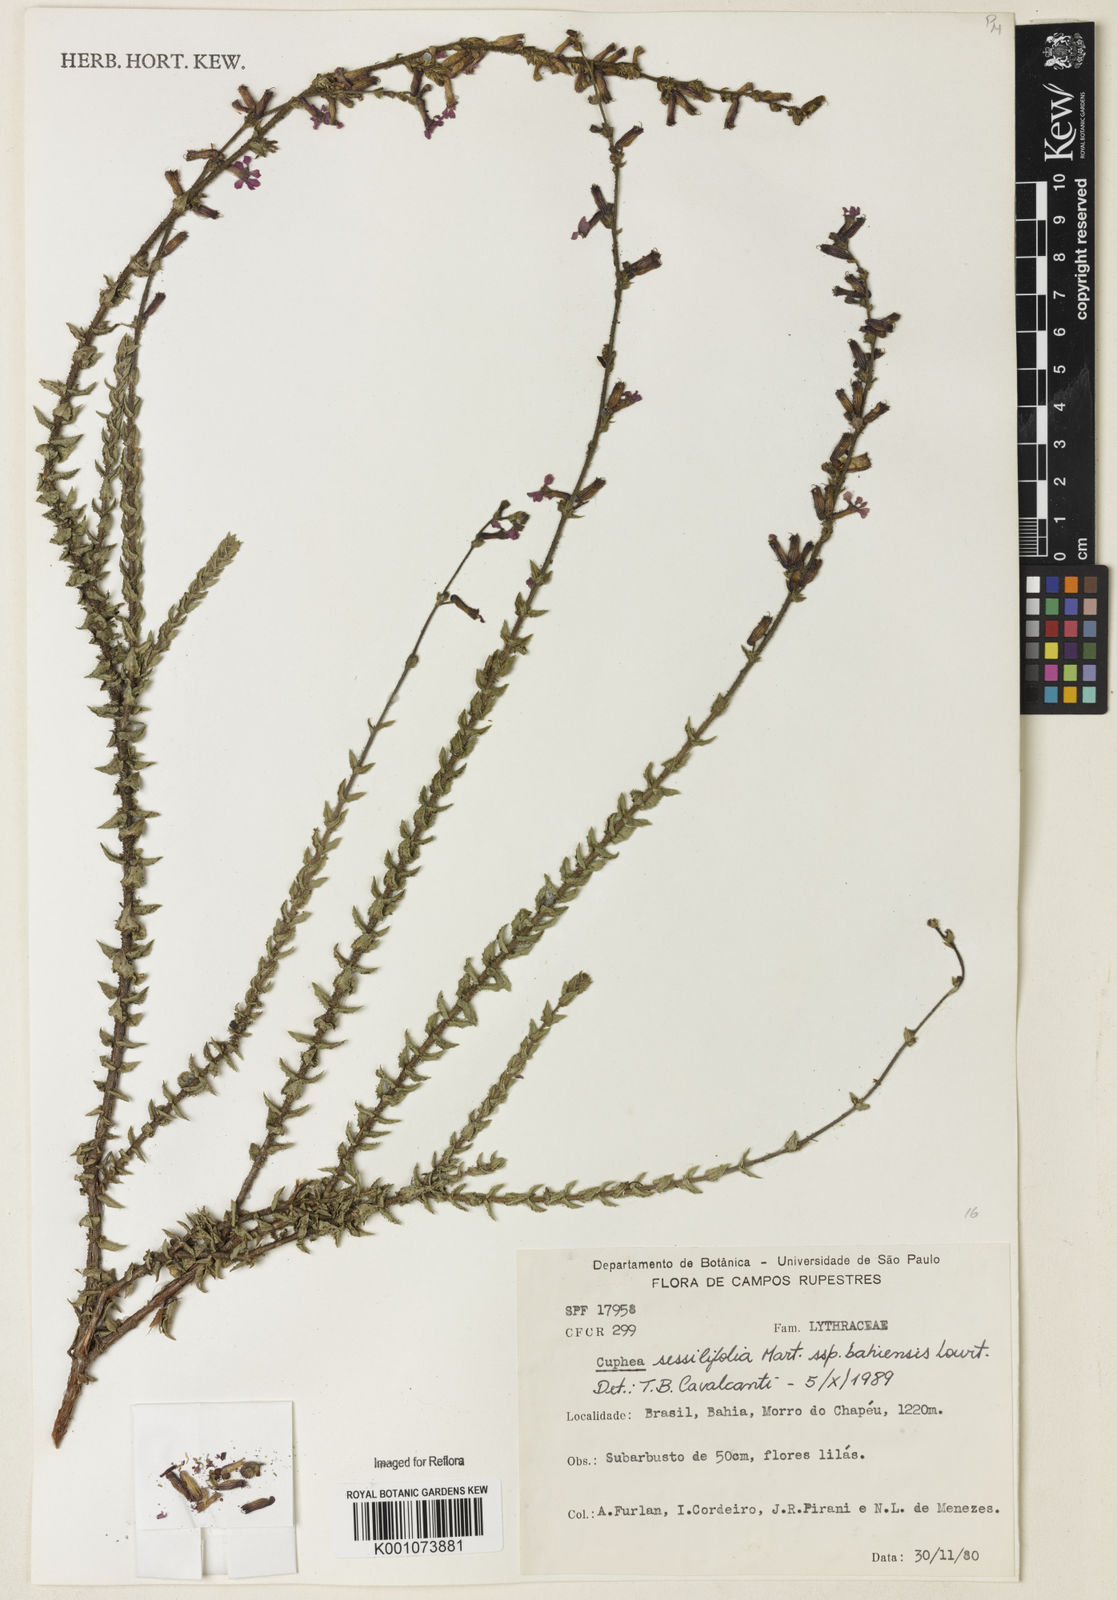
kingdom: Plantae
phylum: Tracheophyta
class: Magnoliopsida
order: Myrtales
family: Lythraceae
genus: Cuphea
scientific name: Cuphea bahiensis
